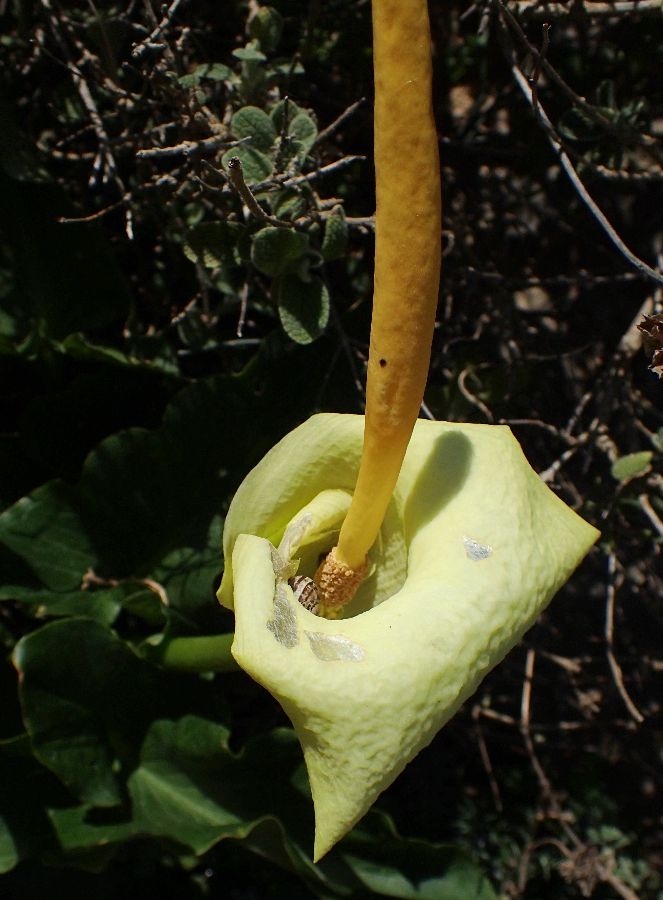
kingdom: Plantae
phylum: Tracheophyta
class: Liliopsida
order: Alismatales
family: Araceae
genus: Arum
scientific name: Arum creticum
